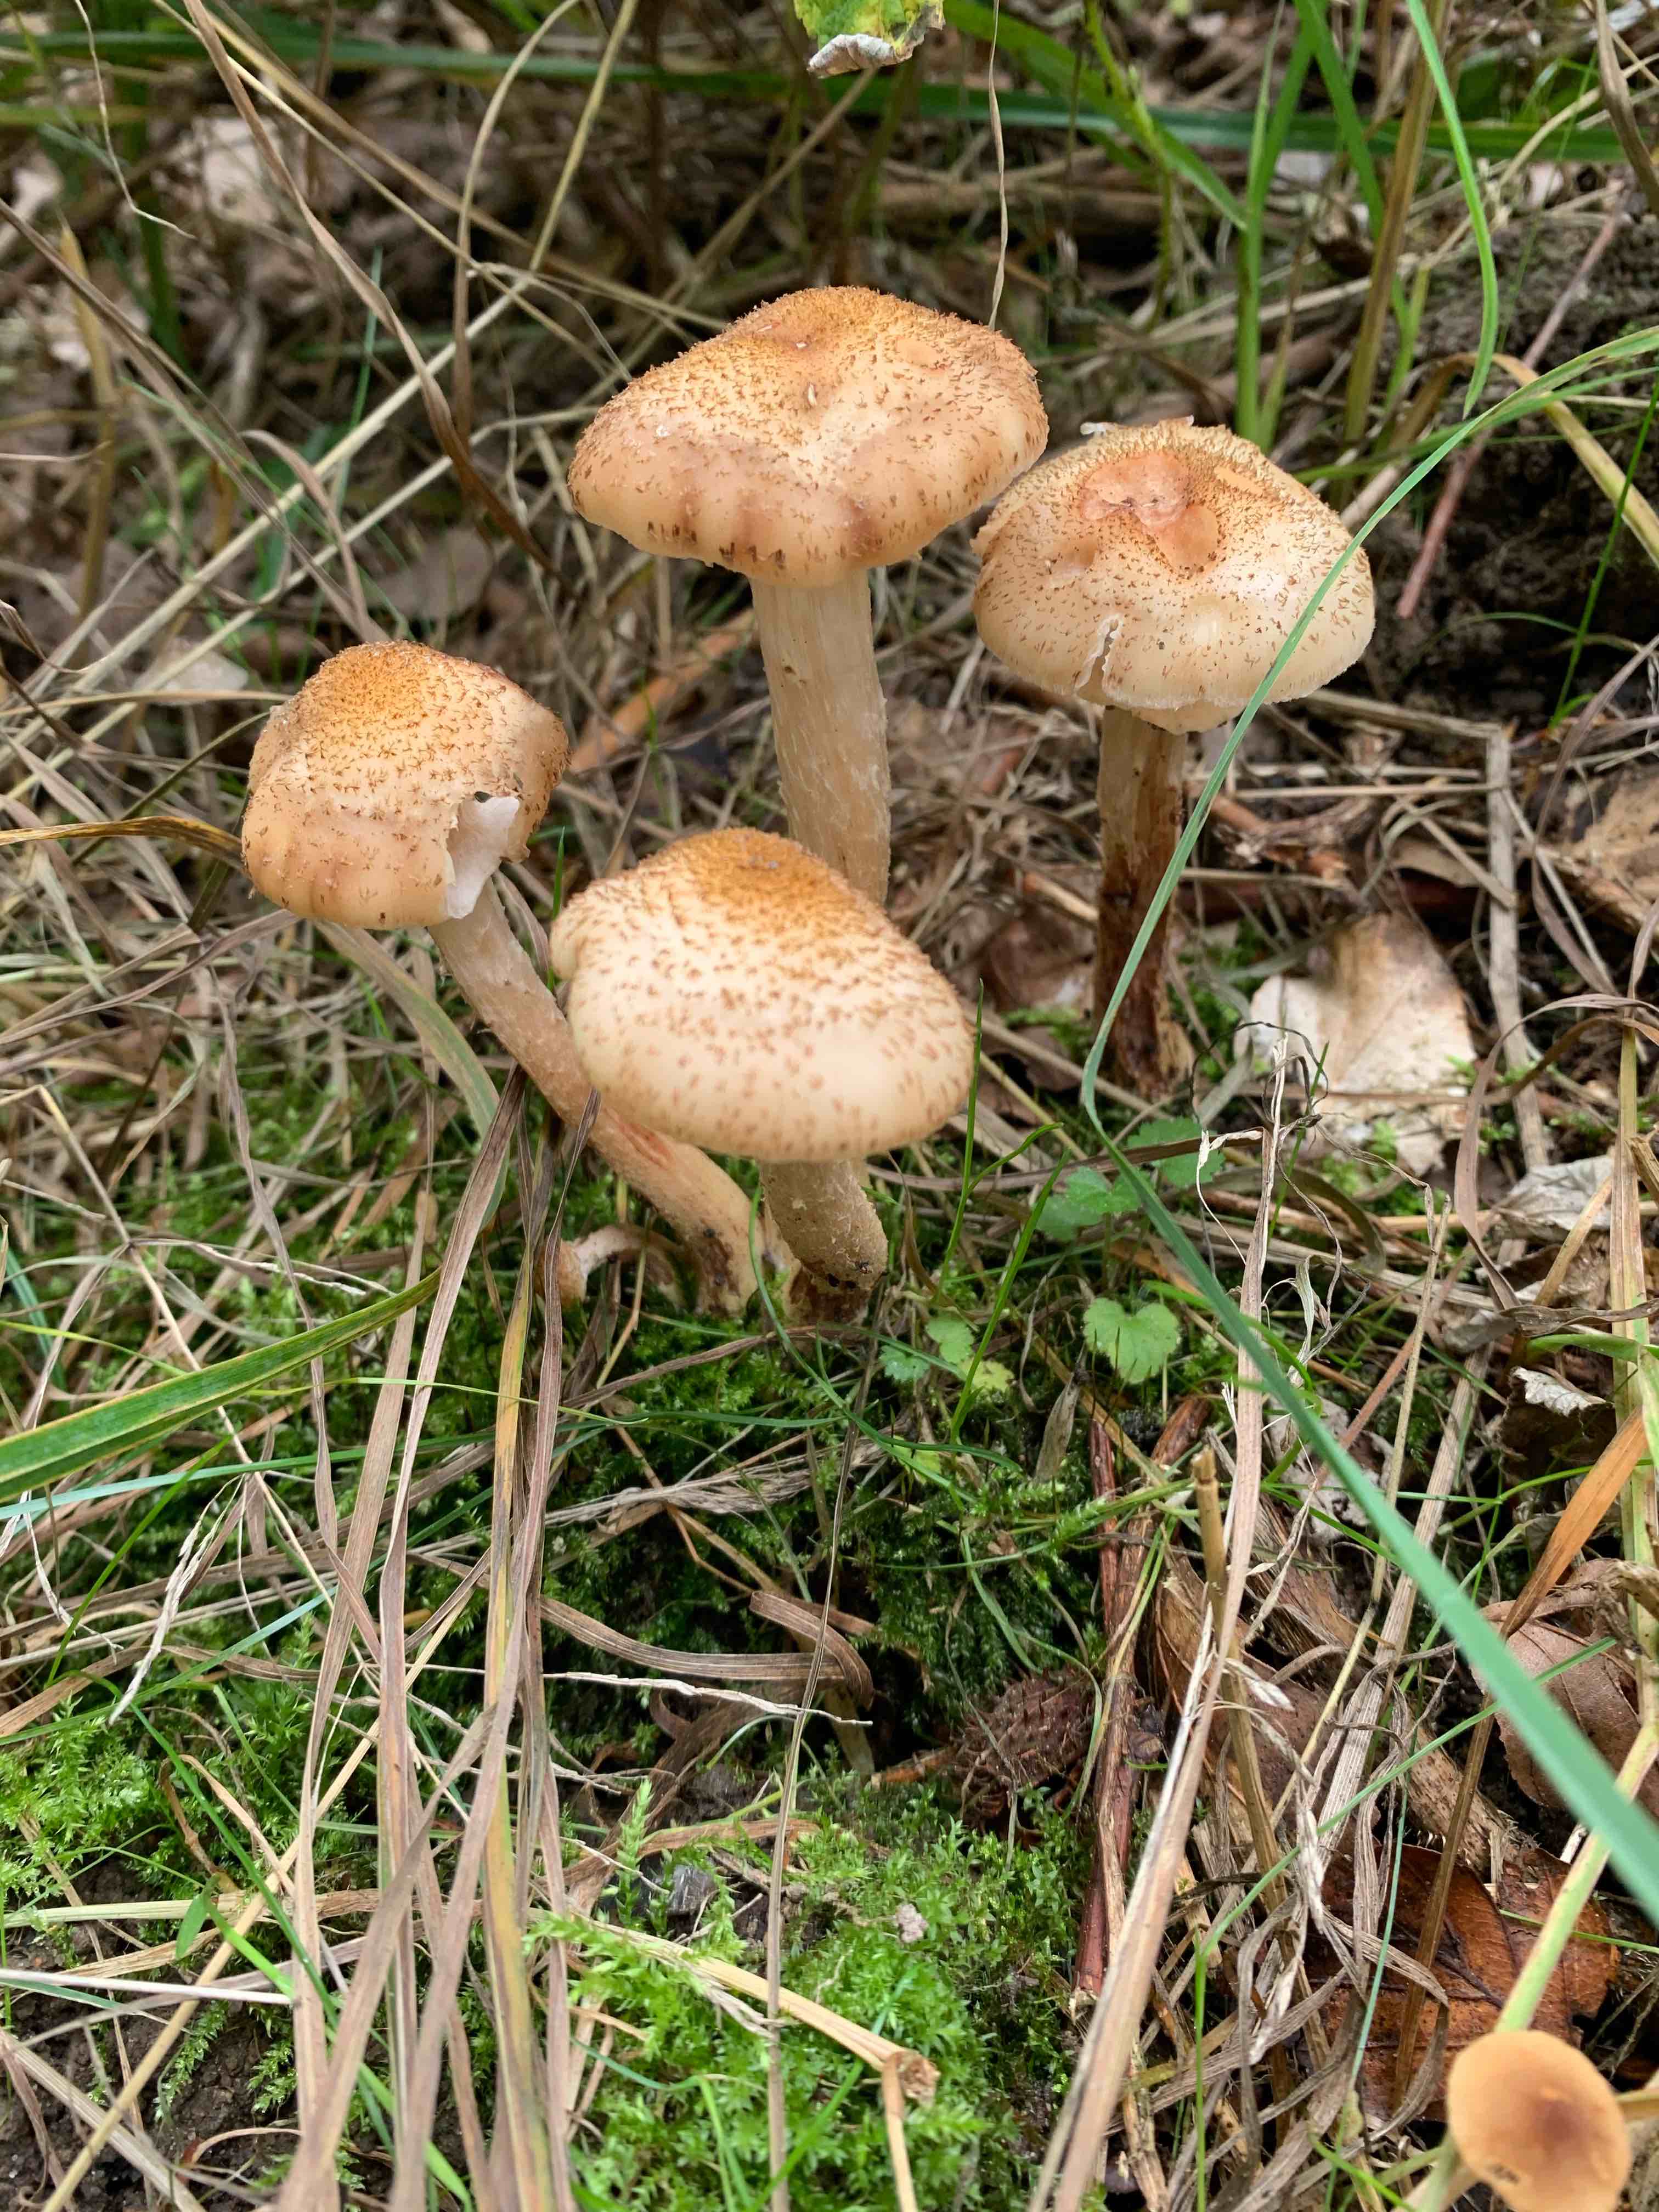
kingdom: Fungi
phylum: Basidiomycota
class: Agaricomycetes
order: Agaricales
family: Physalacriaceae
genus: Armillaria
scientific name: Armillaria
